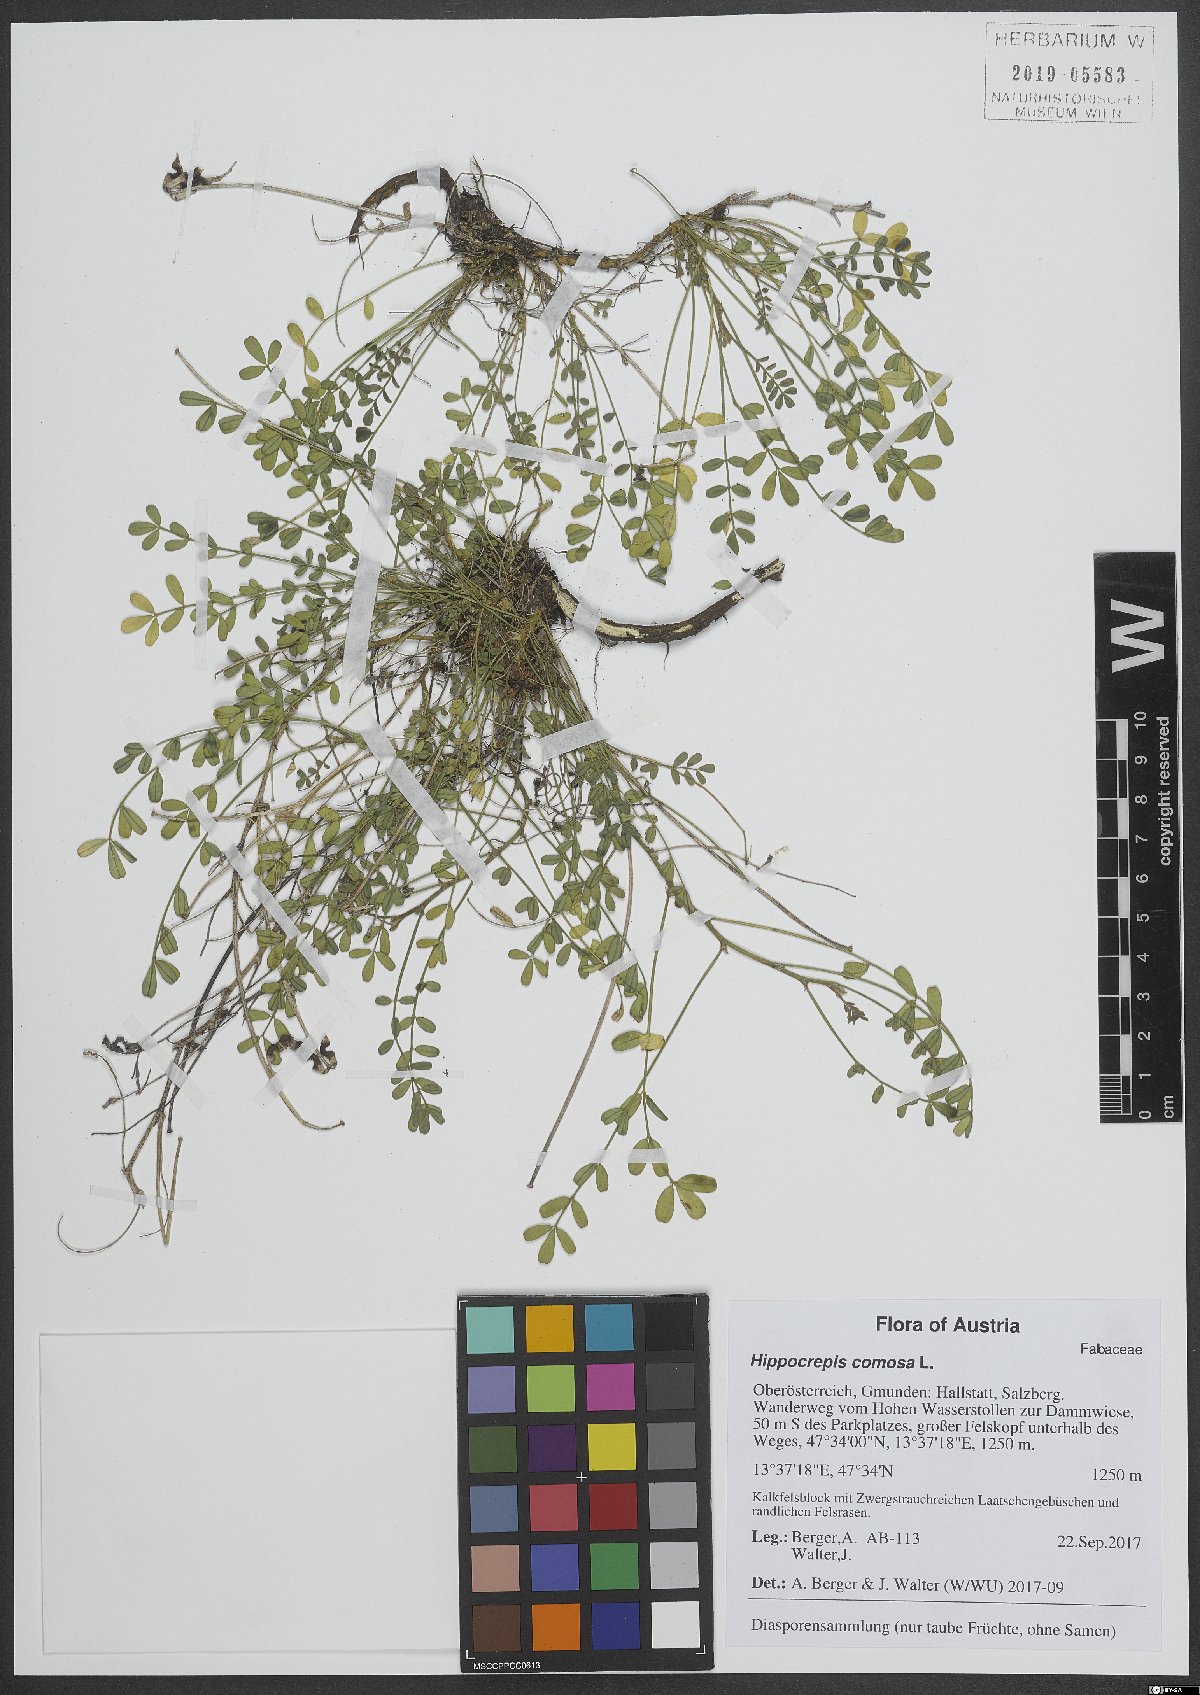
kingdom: Plantae
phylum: Tracheophyta
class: Magnoliopsida
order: Fabales
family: Fabaceae
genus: Hippocrepis
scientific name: Hippocrepis comosa
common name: Horseshoe vetch
